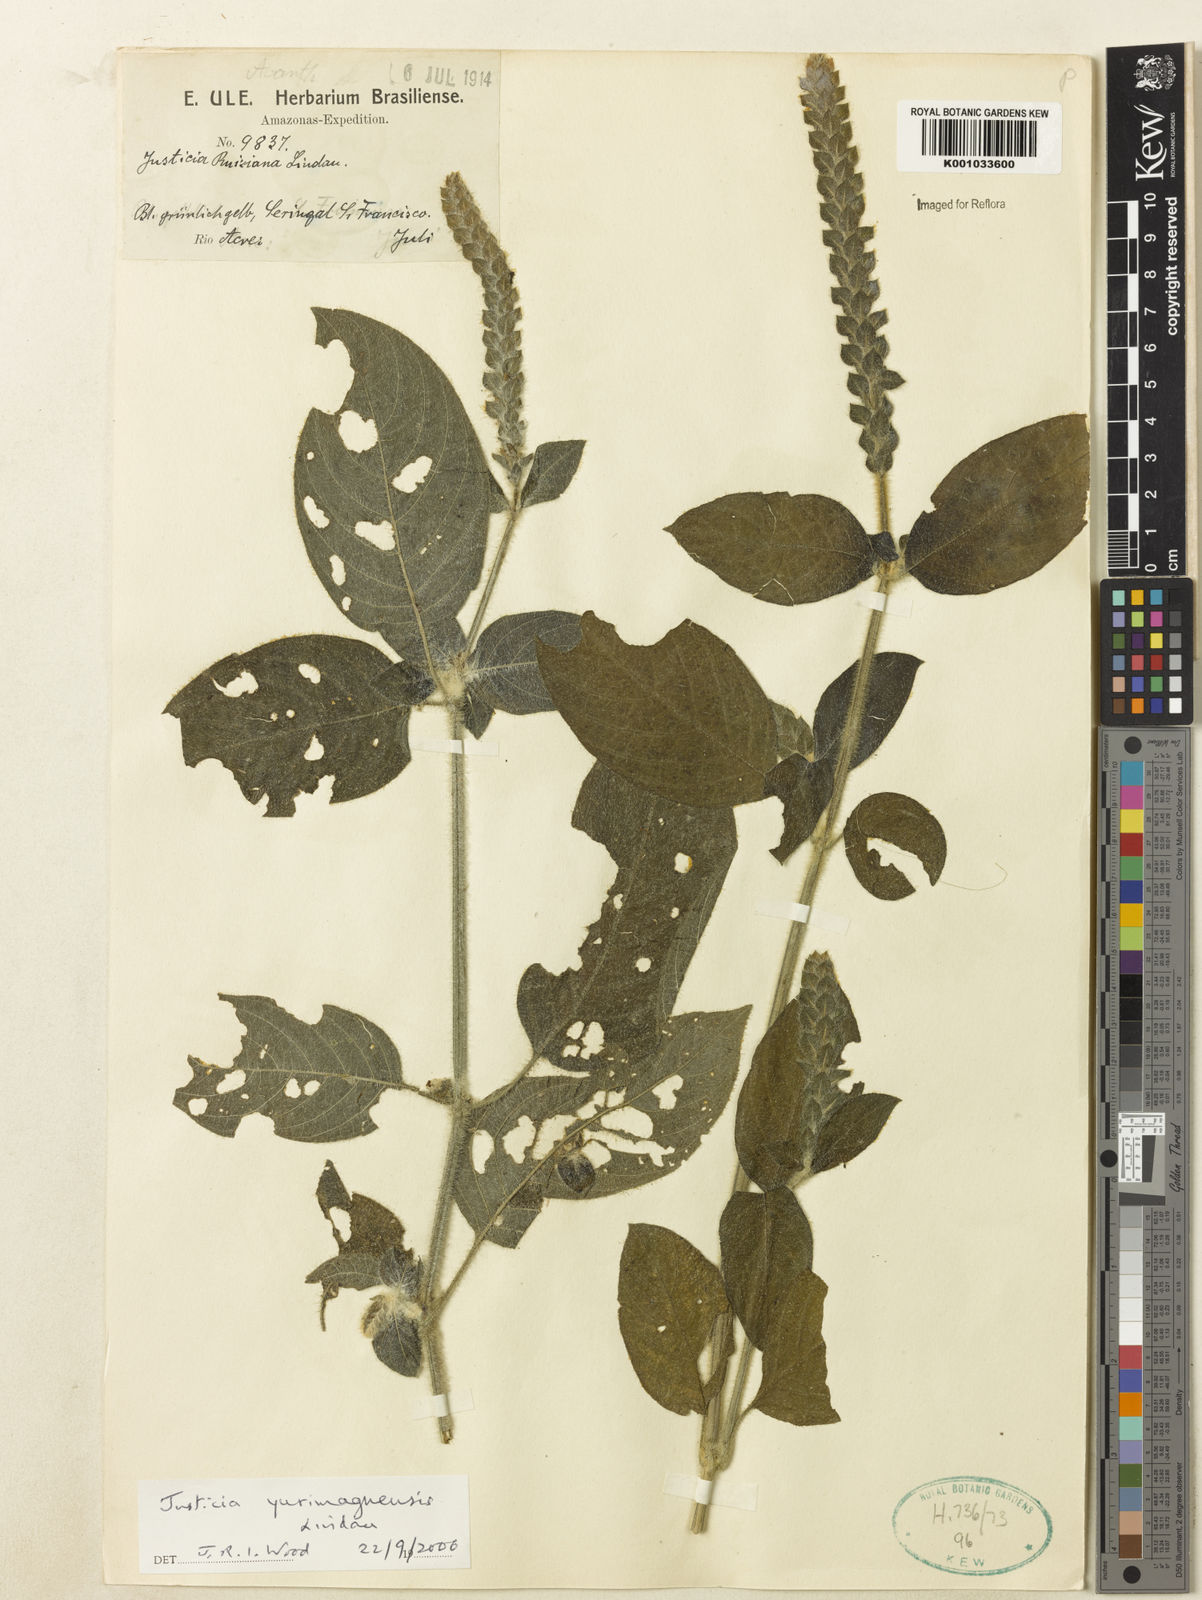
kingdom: Plantae
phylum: Tracheophyta
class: Magnoliopsida
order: Lamiales
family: Acanthaceae
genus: Justicia
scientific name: Justicia yurimaguensis
